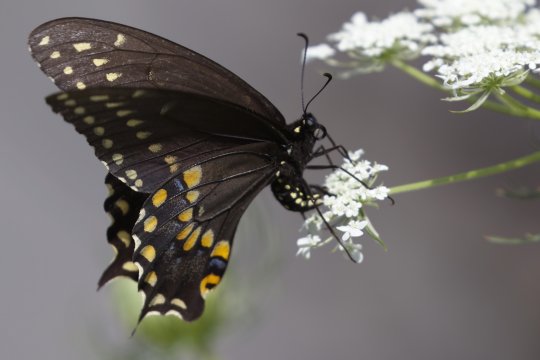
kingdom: Animalia
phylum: Arthropoda
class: Insecta
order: Lepidoptera
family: Papilionidae
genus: Papilio
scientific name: Papilio polyxenes
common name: Black Swallowtail
